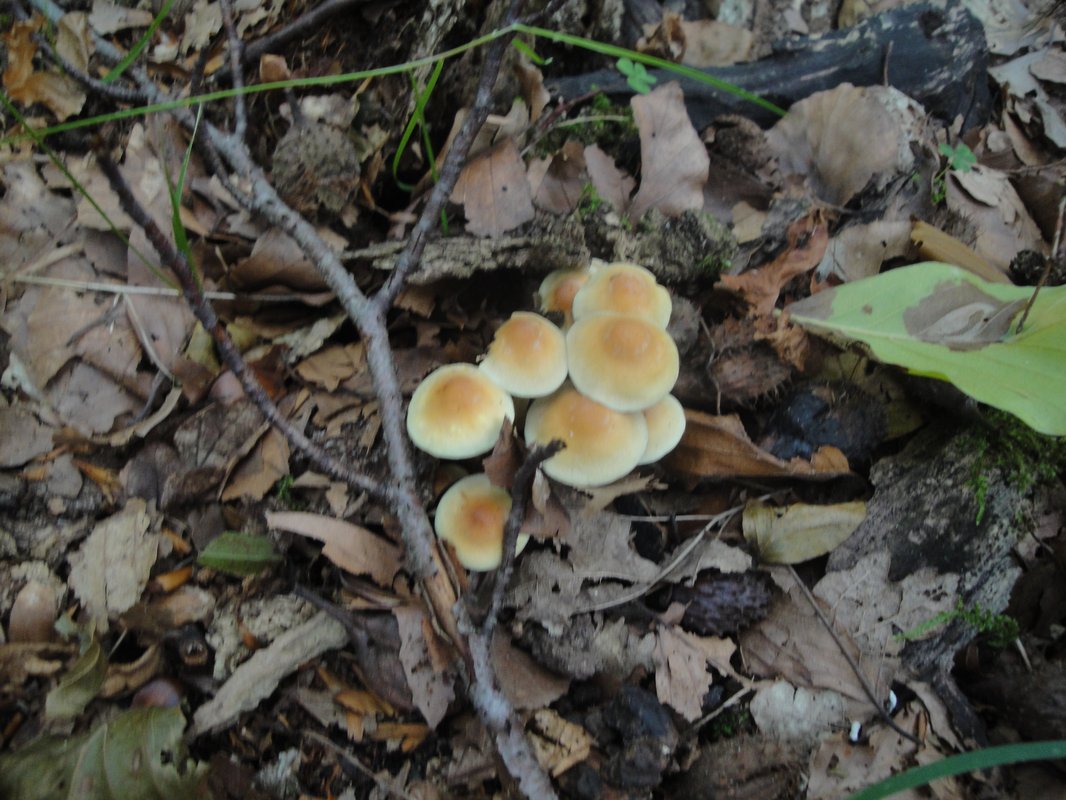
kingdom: Fungi
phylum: Basidiomycota
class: Agaricomycetes
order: Agaricales
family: Strophariaceae
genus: Hypholoma
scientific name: Hypholoma fasciculare
